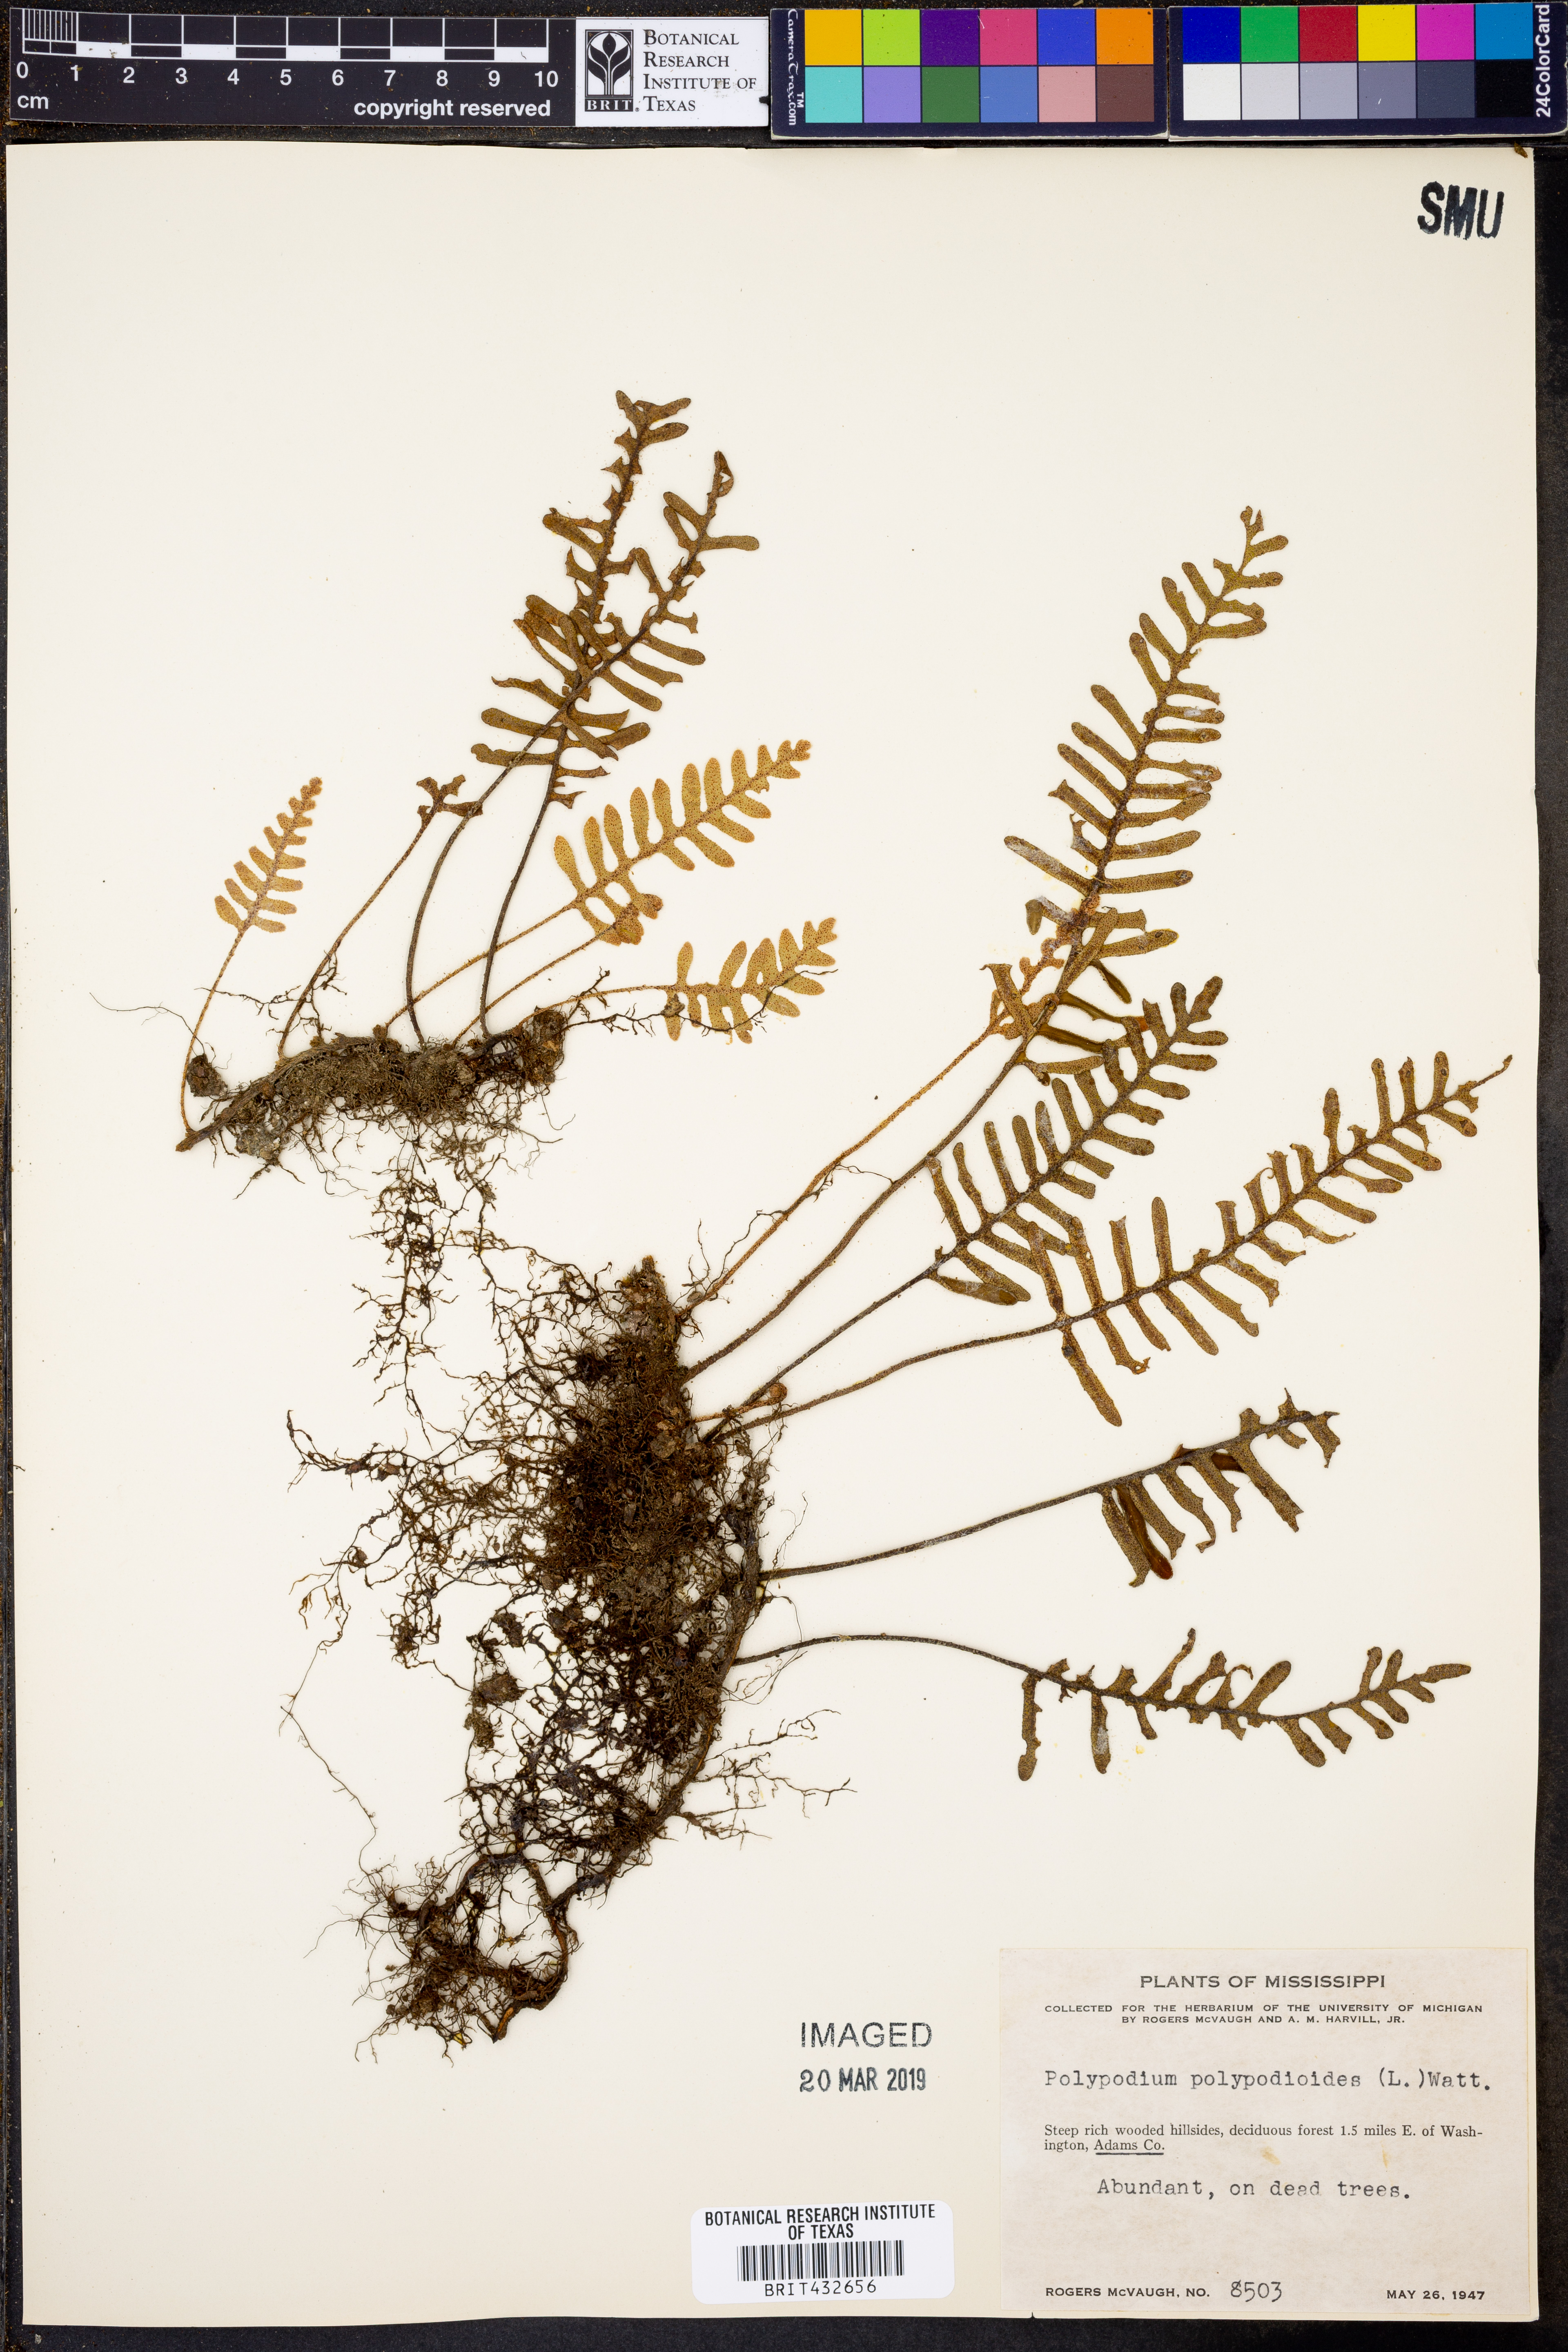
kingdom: Plantae
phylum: Tracheophyta
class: Polypodiopsida
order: Polypodiales
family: Polypodiaceae
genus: Pleopeltis
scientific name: Pleopeltis polypodioides
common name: Resurrection fern
